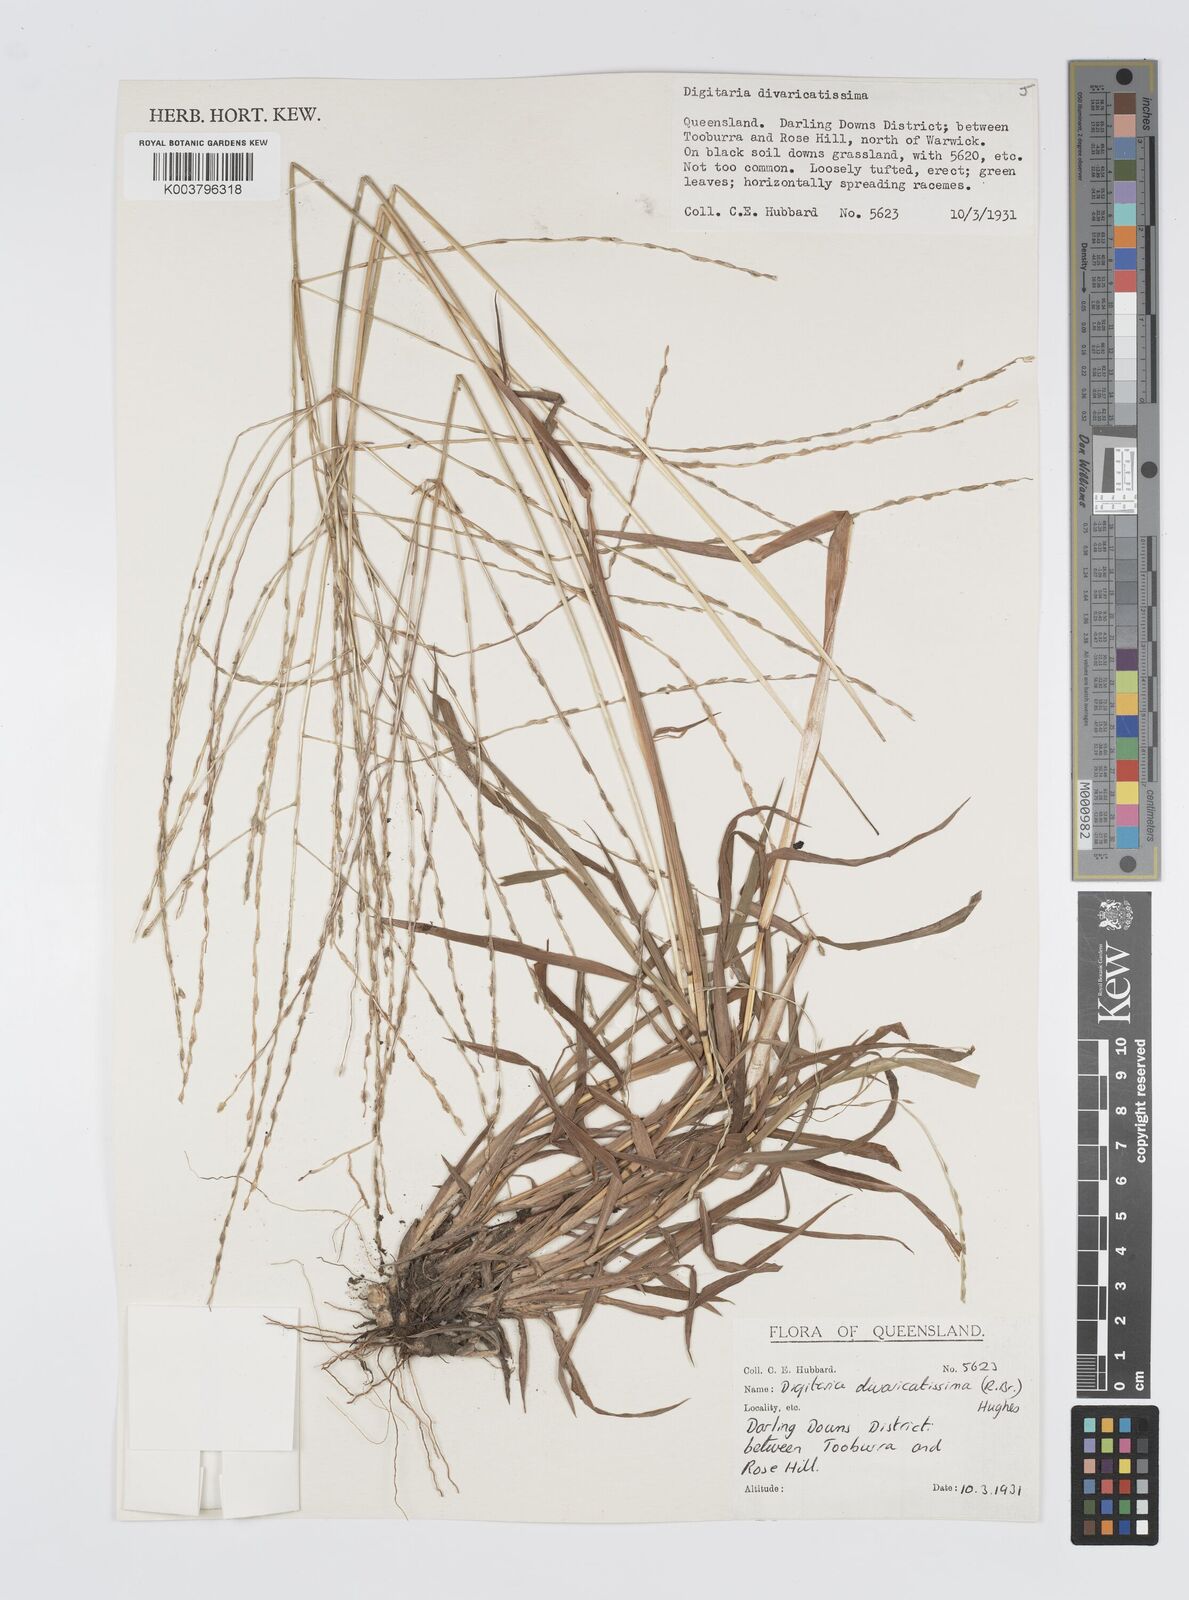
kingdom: Plantae
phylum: Tracheophyta
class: Liliopsida
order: Poales
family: Poaceae
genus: Digitaria
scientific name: Digitaria divaricatissima
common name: Crabgrass
